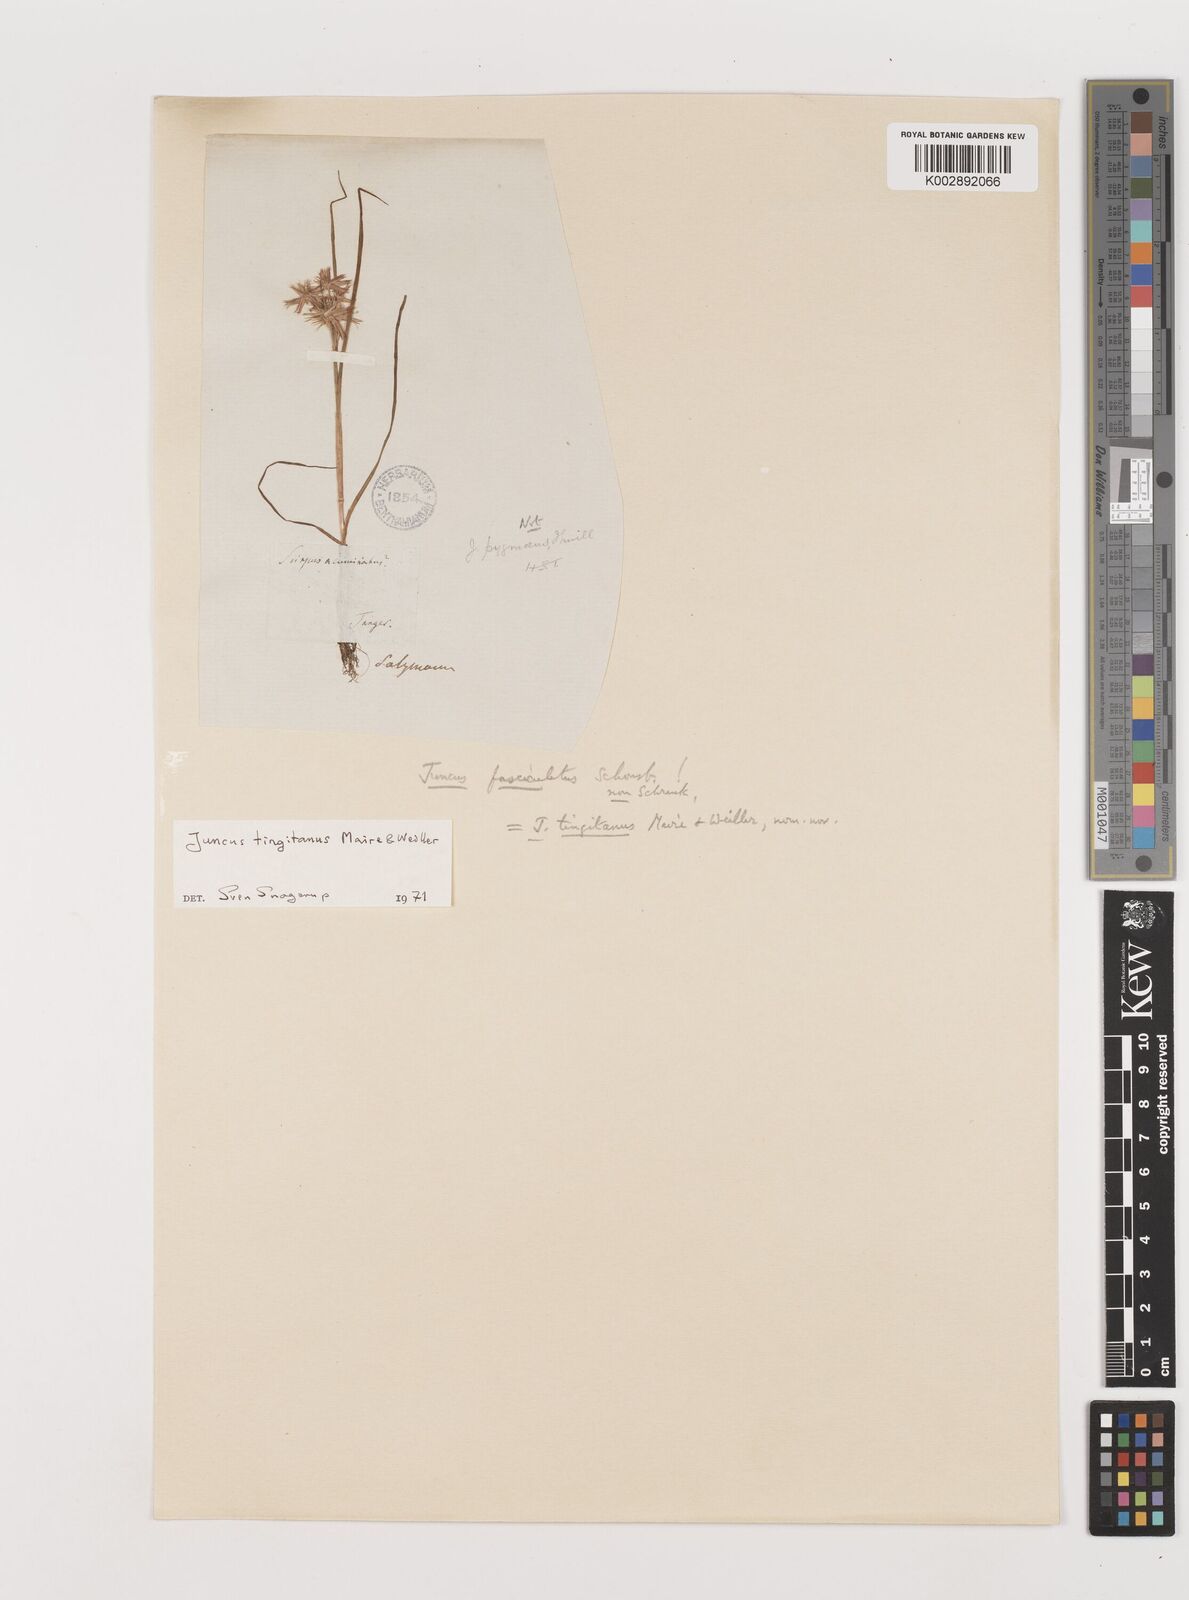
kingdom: Plantae
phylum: Tracheophyta
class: Liliopsida
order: Poales
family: Juncaceae
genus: Juncus
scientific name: Juncus tingitanus
